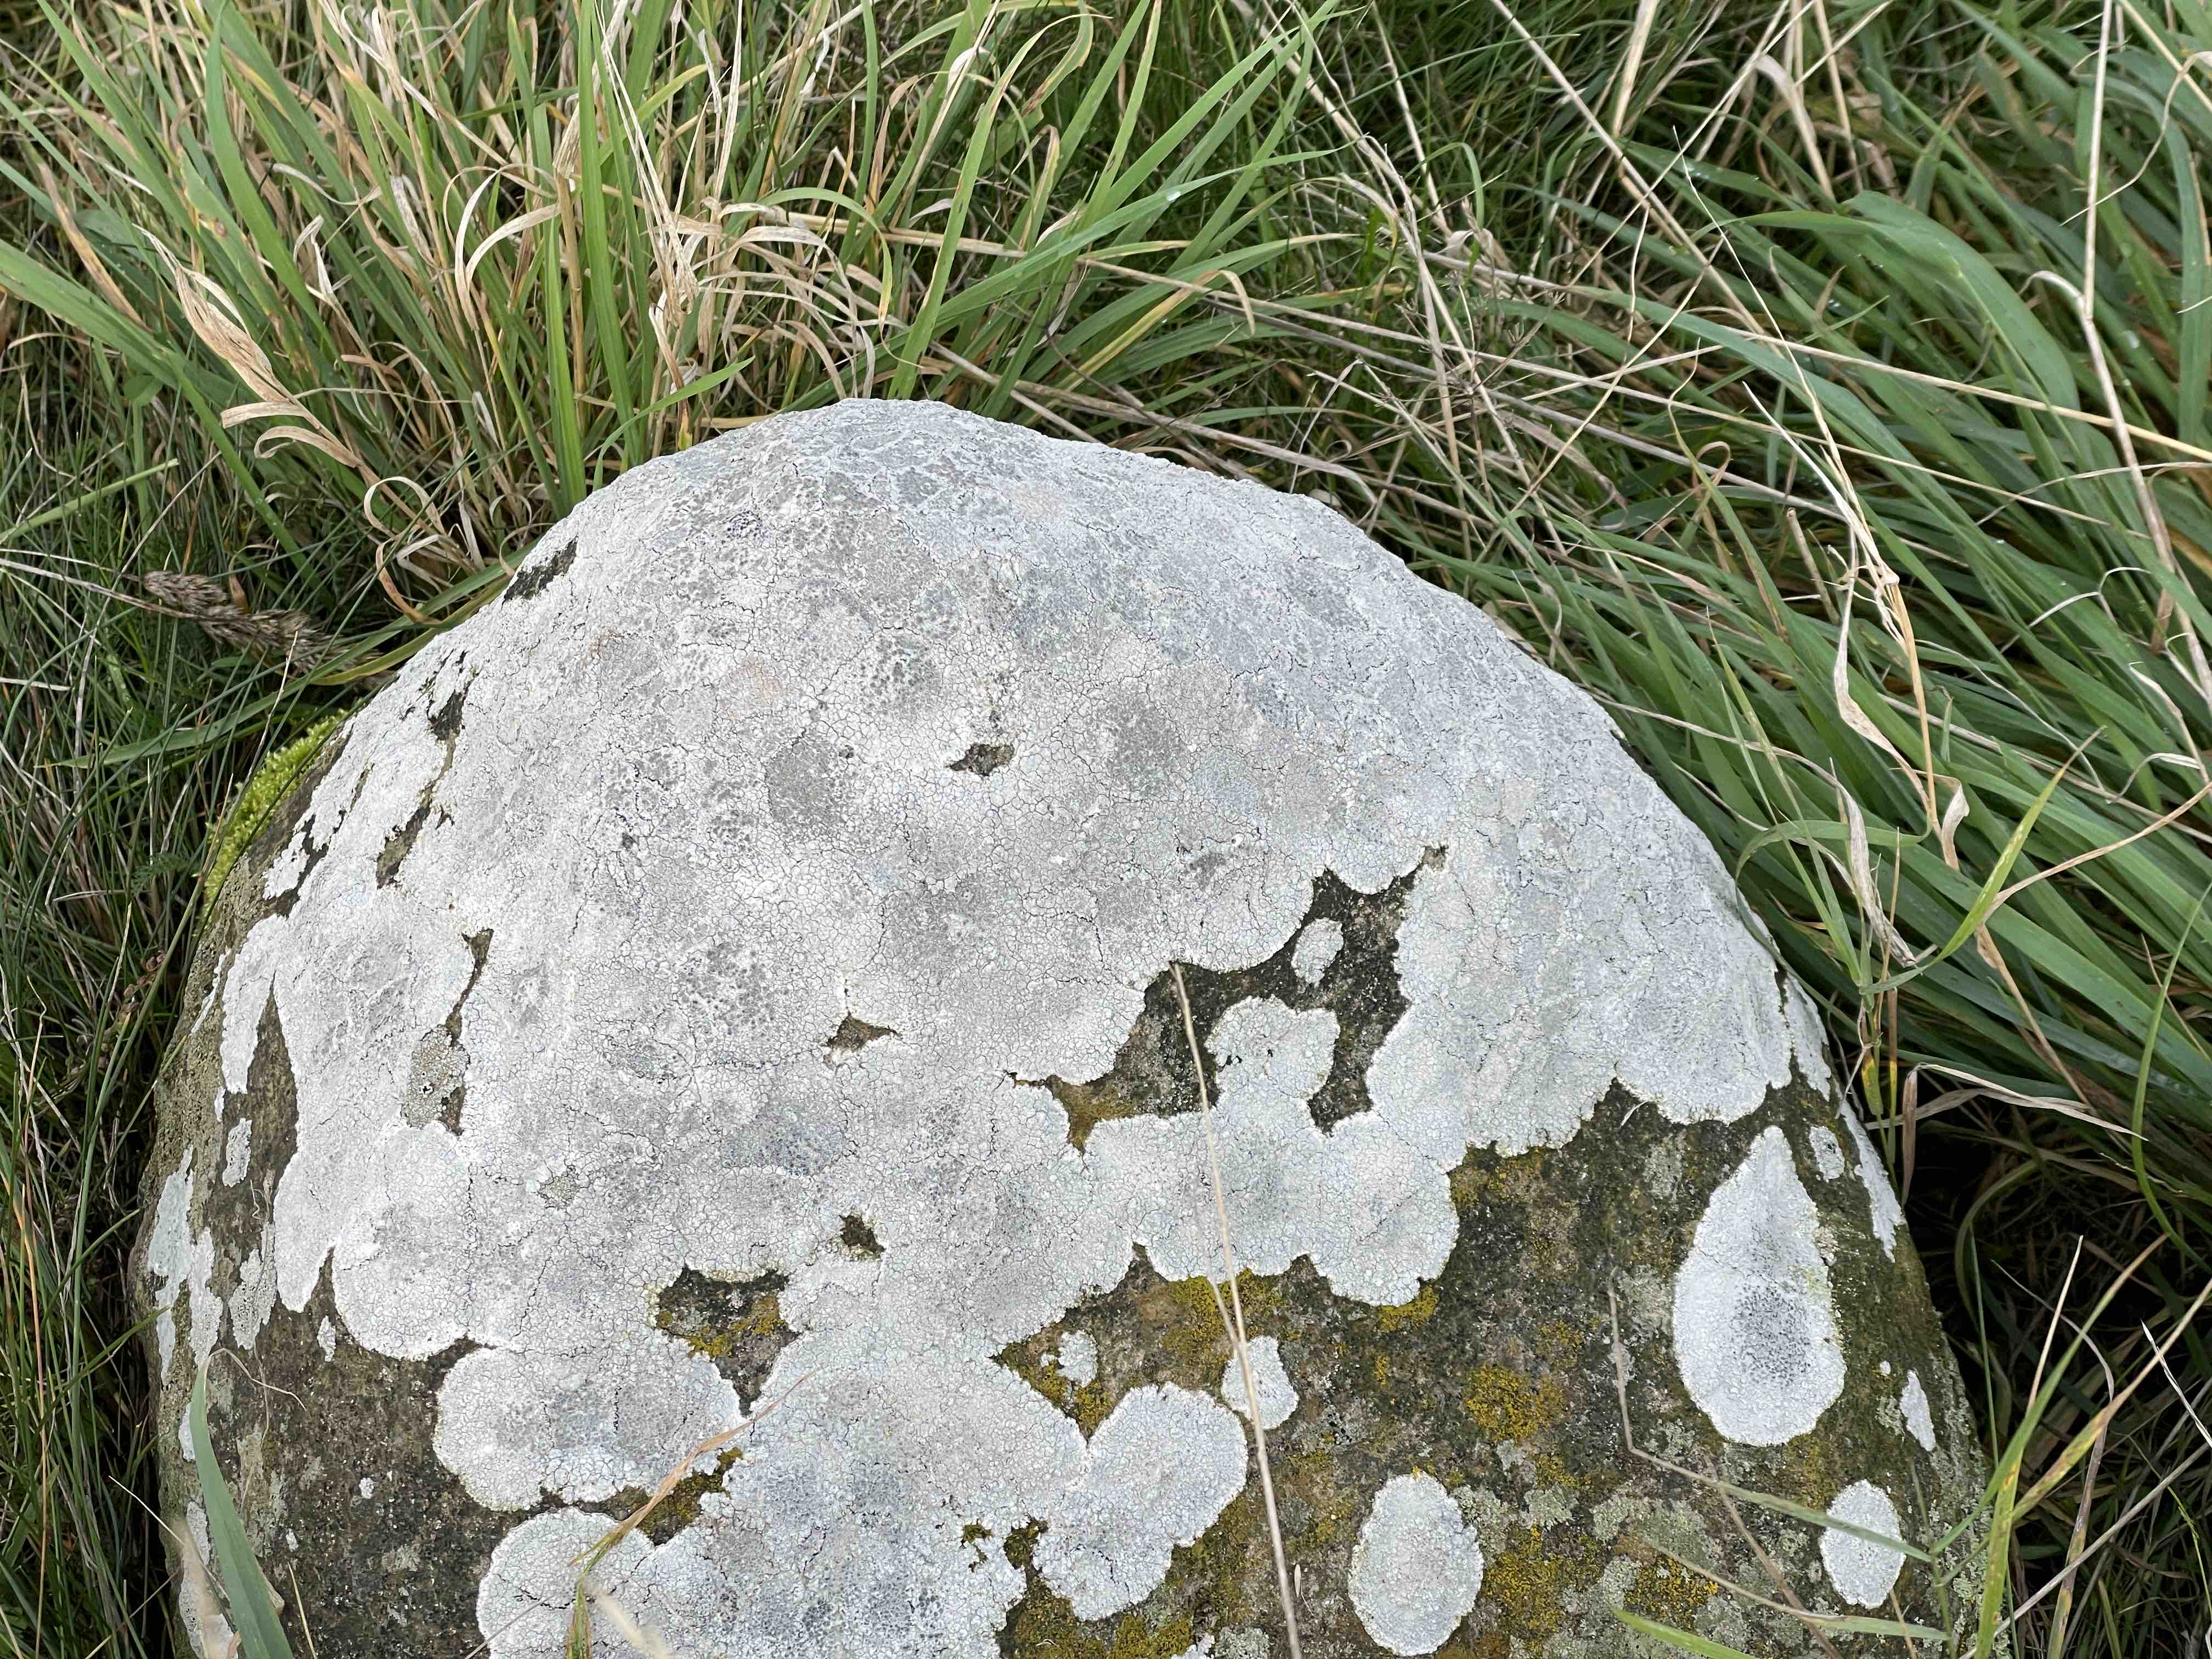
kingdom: Fungi
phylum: Ascomycota
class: Lecanoromycetes
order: Lecanorales
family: Lecanoraceae
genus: Glaucomaria
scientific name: Glaucomaria rupicola
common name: stengærde-kantskivelav
